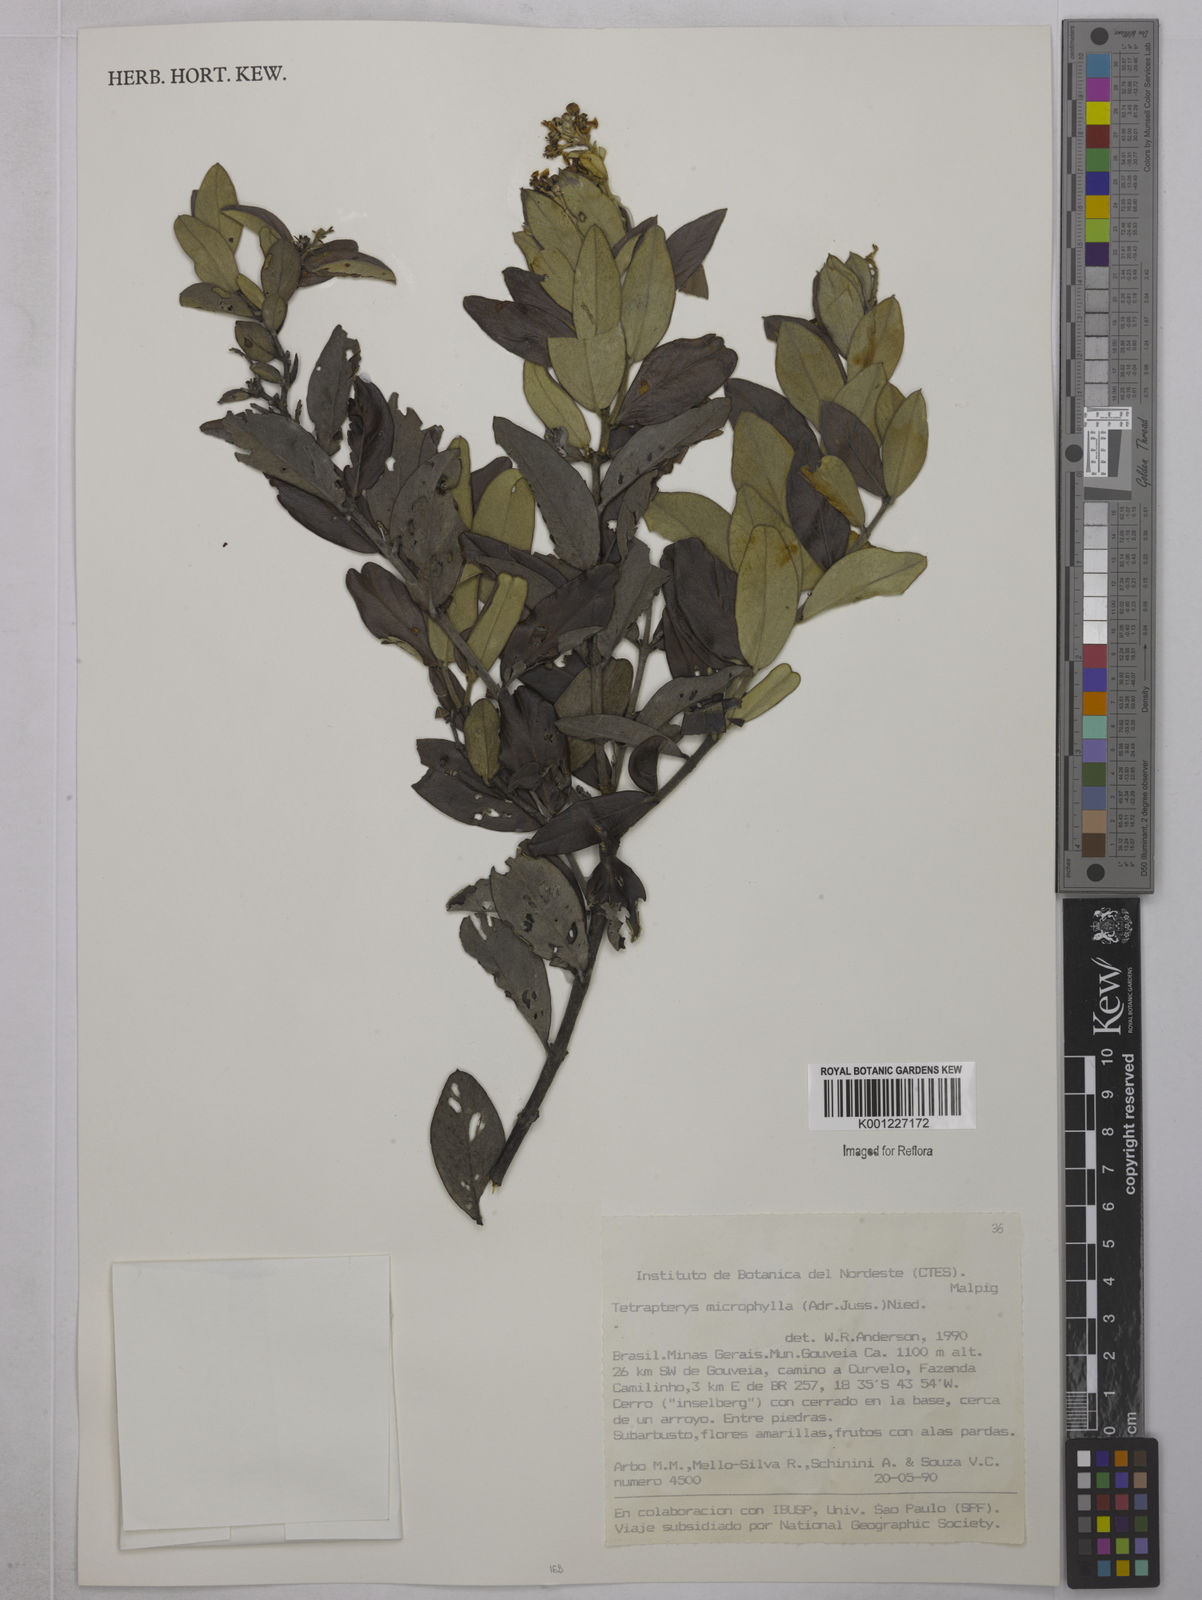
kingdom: Plantae
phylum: Tracheophyta
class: Magnoliopsida
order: Malpighiales
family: Malpighiaceae
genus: Glicophyllum
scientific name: Glicophyllum microphyllum
